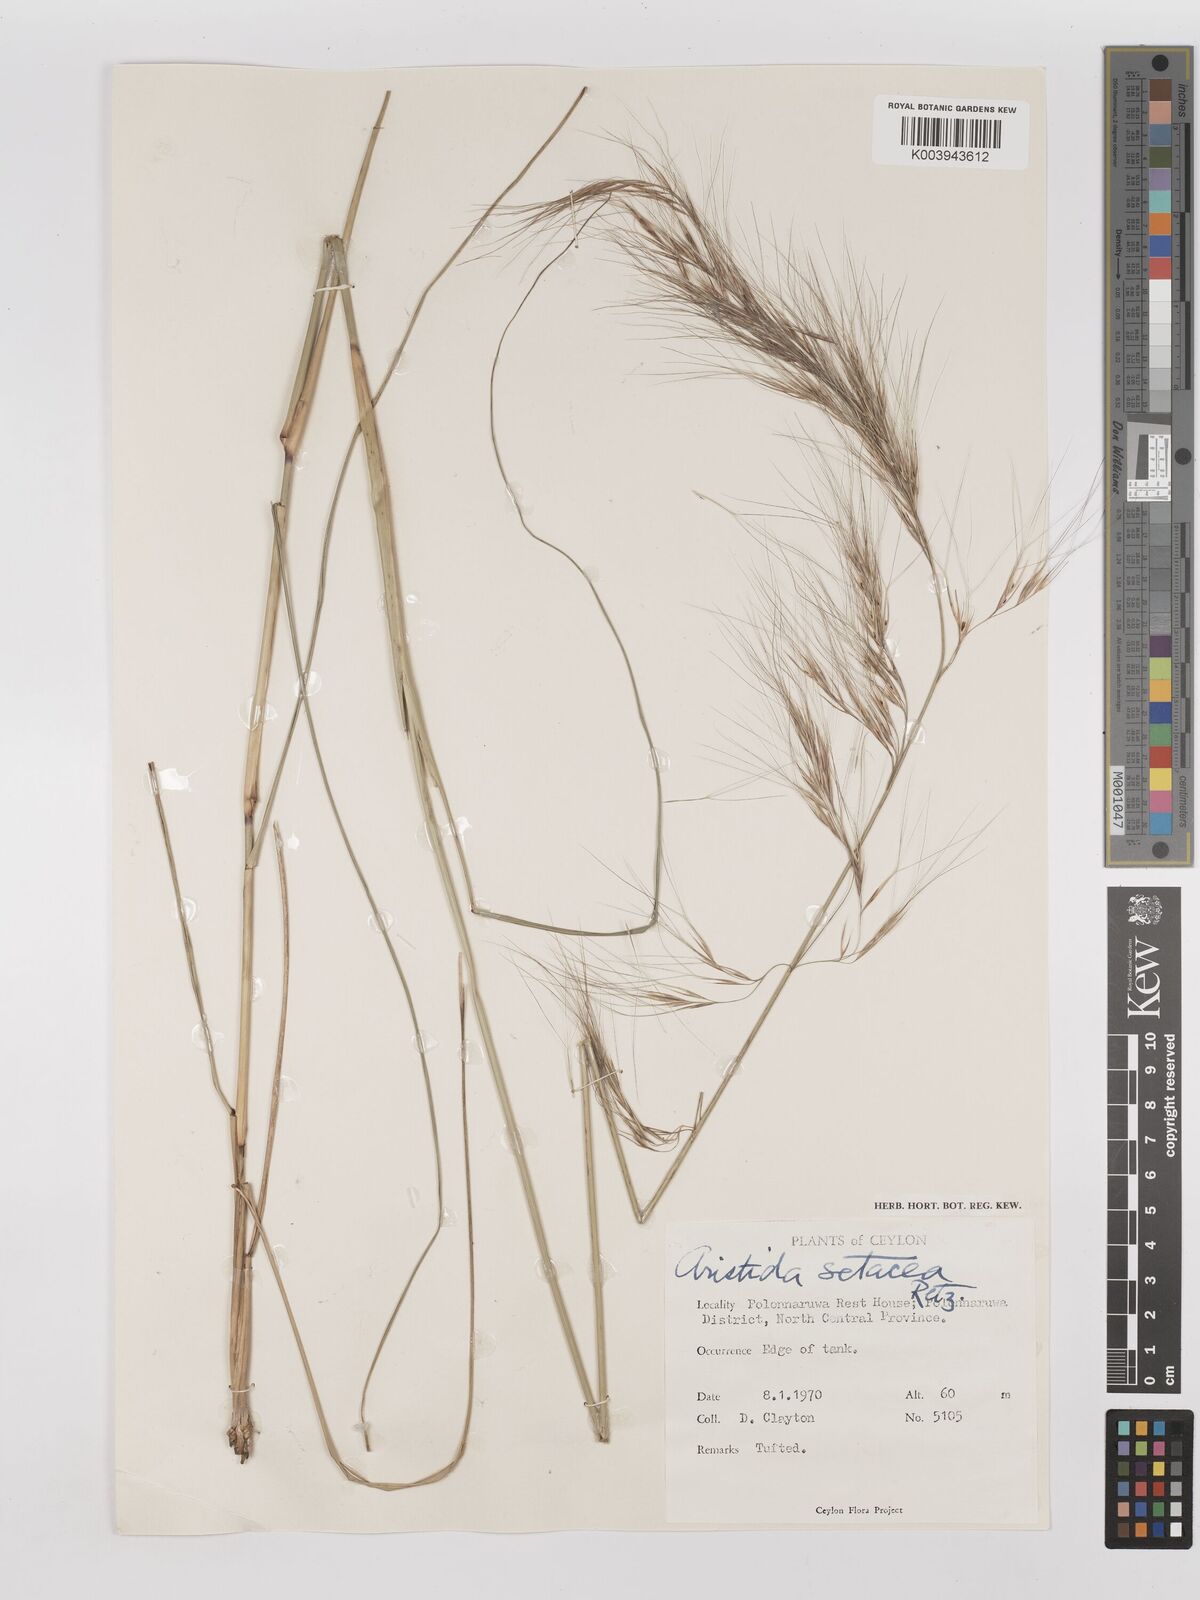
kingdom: Plantae
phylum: Tracheophyta
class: Liliopsida
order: Poales
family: Poaceae
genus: Aristida
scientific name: Aristida setacea
